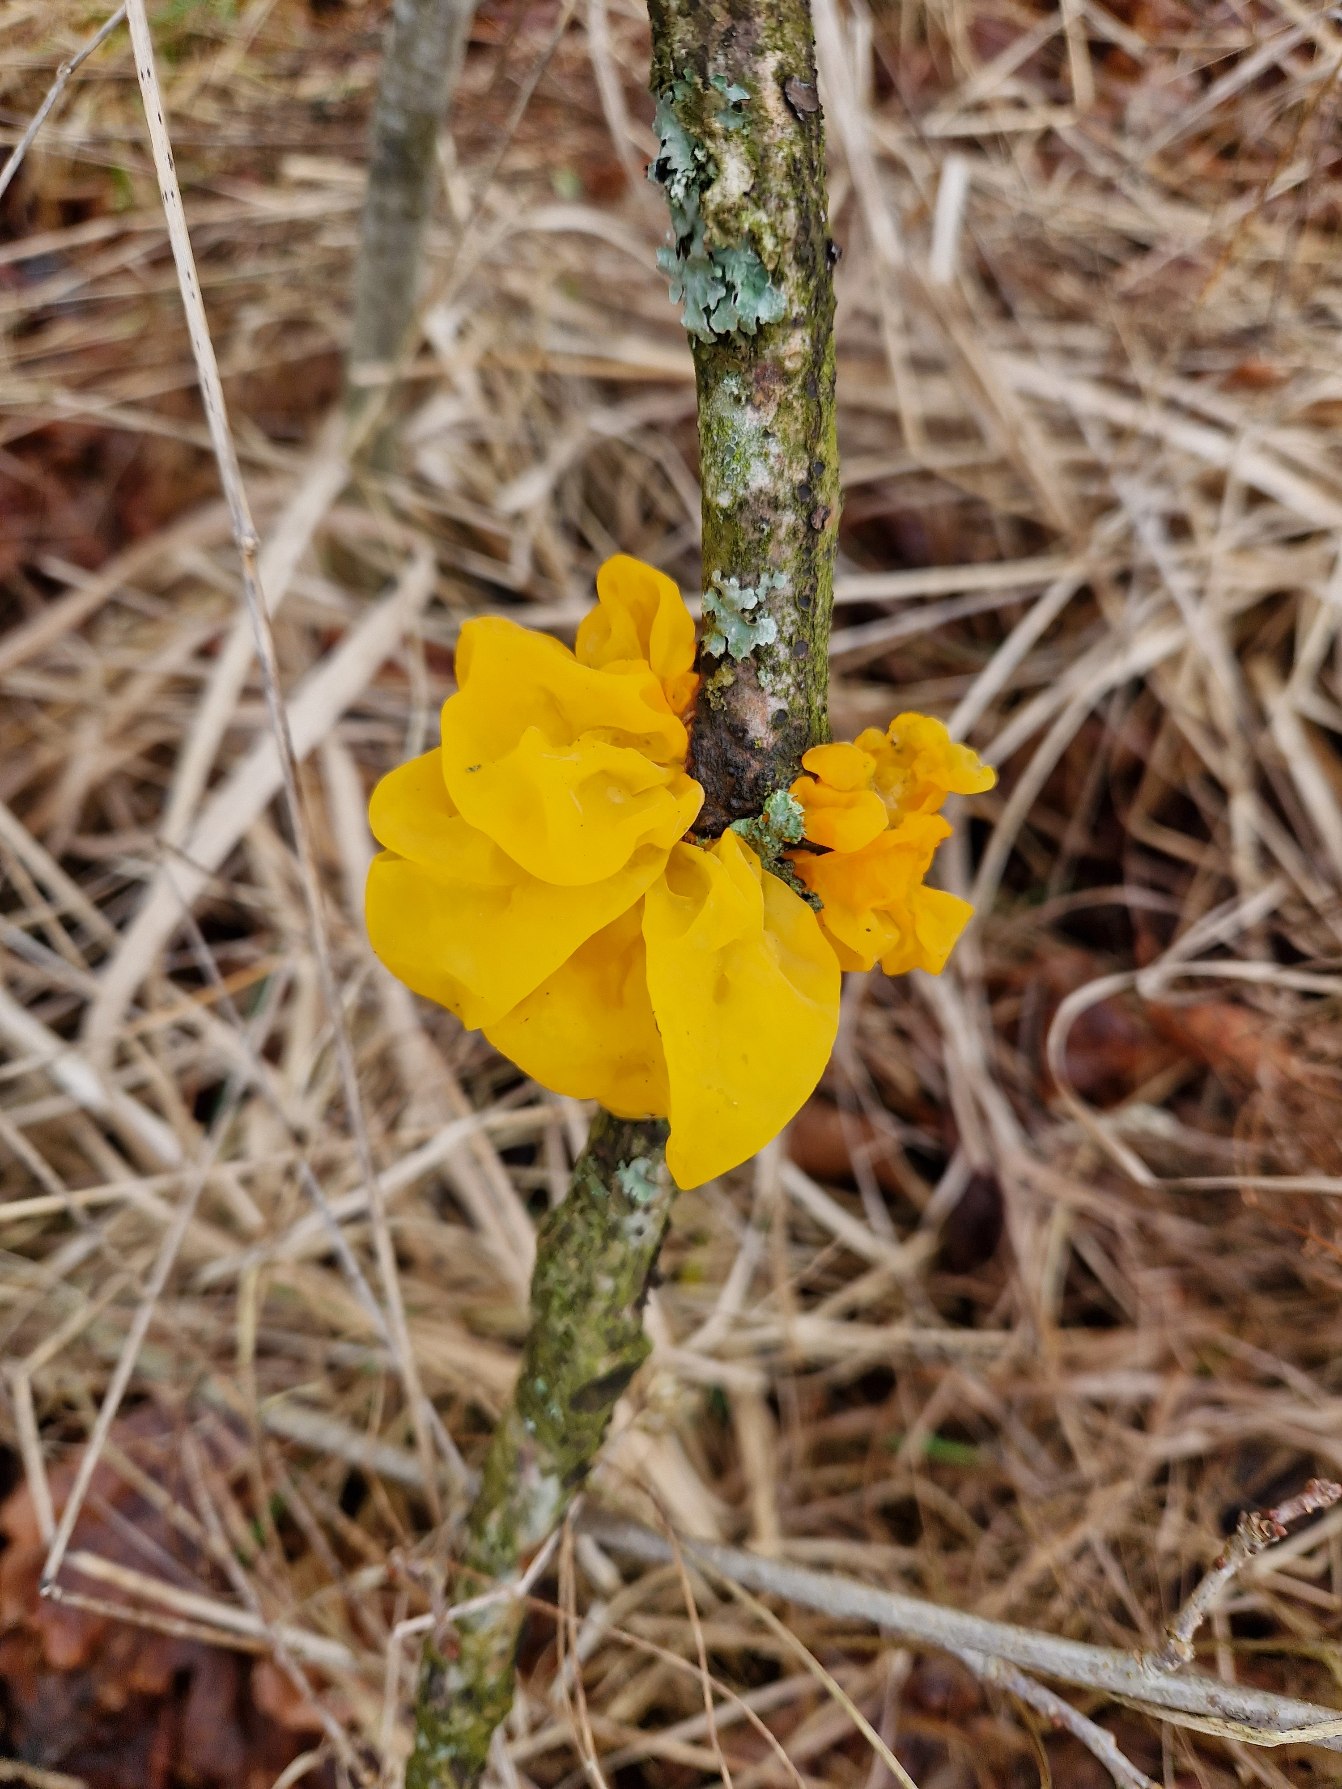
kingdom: Fungi
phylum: Basidiomycota
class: Tremellomycetes
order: Tremellales
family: Tremellaceae
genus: Tremella
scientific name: Tremella mesenterica
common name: Gul bævresvamp
